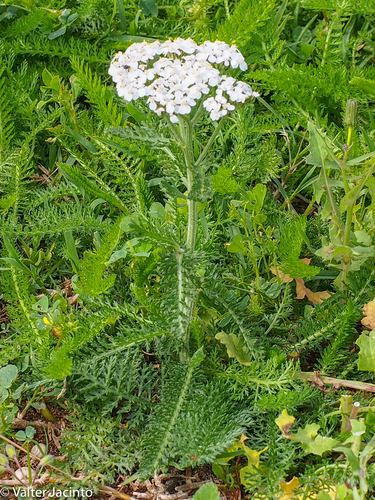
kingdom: Plantae
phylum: Tracheophyta
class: Magnoliopsida
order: Asterales
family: Asteraceae
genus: Achillea
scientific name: Achillea millefolium
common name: Yarrow
